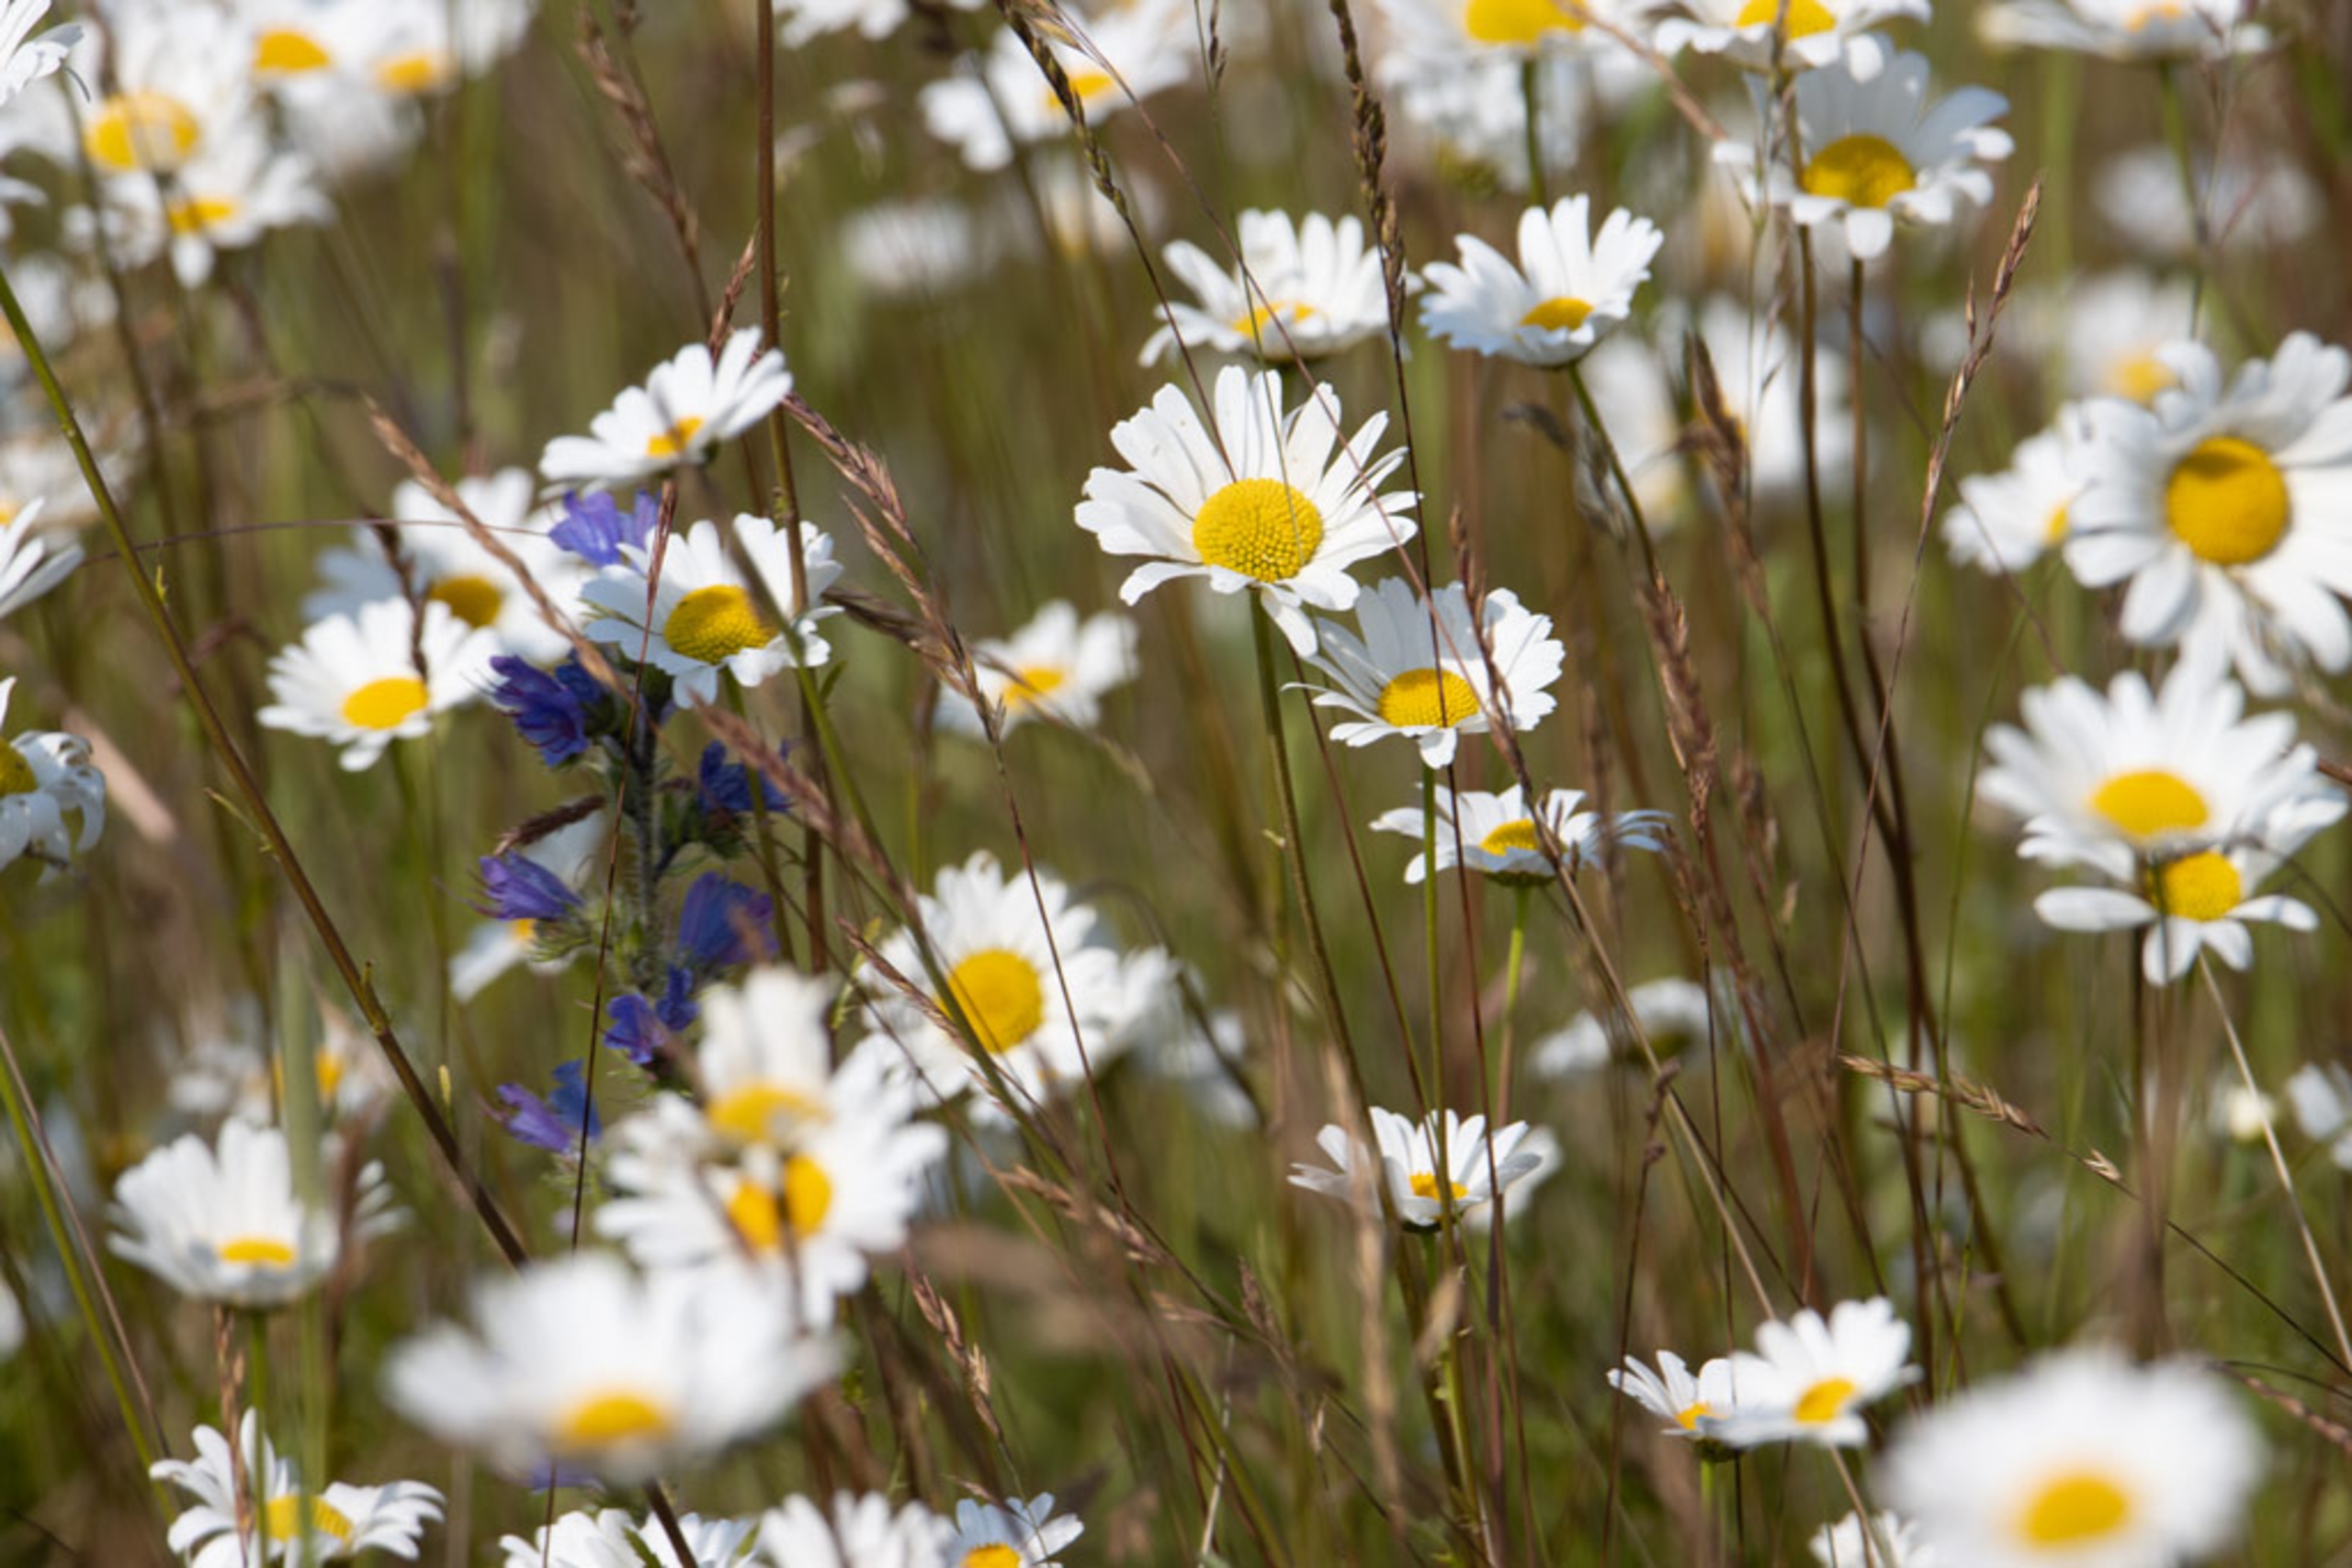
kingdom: Plantae
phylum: Tracheophyta
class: Magnoliopsida
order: Asterales
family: Asteraceae
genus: Leucanthemum
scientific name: Leucanthemum vulgare
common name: Hvid okseøje
